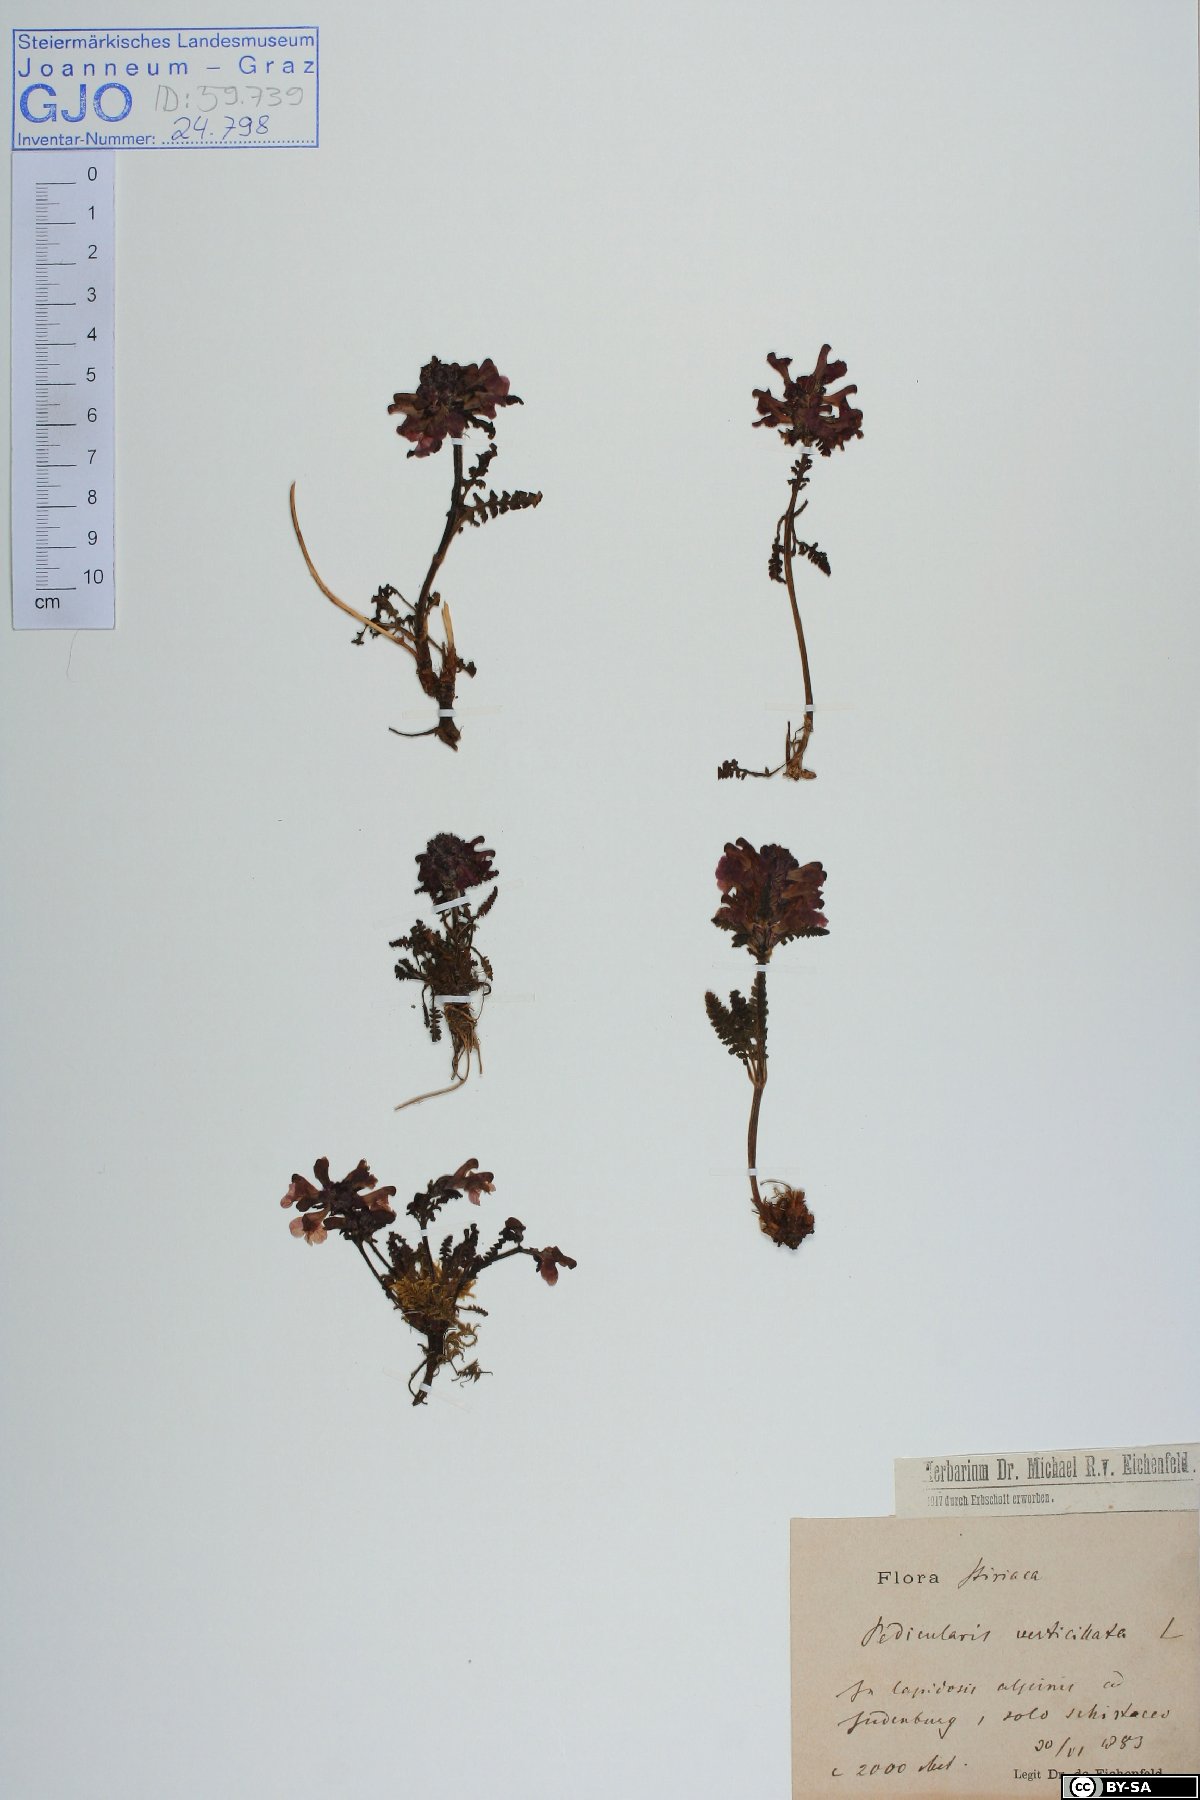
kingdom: Plantae
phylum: Tracheophyta
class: Magnoliopsida
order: Lamiales
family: Orobanchaceae
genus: Pedicularis
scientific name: Pedicularis verticillata
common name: Whorled lousewort
